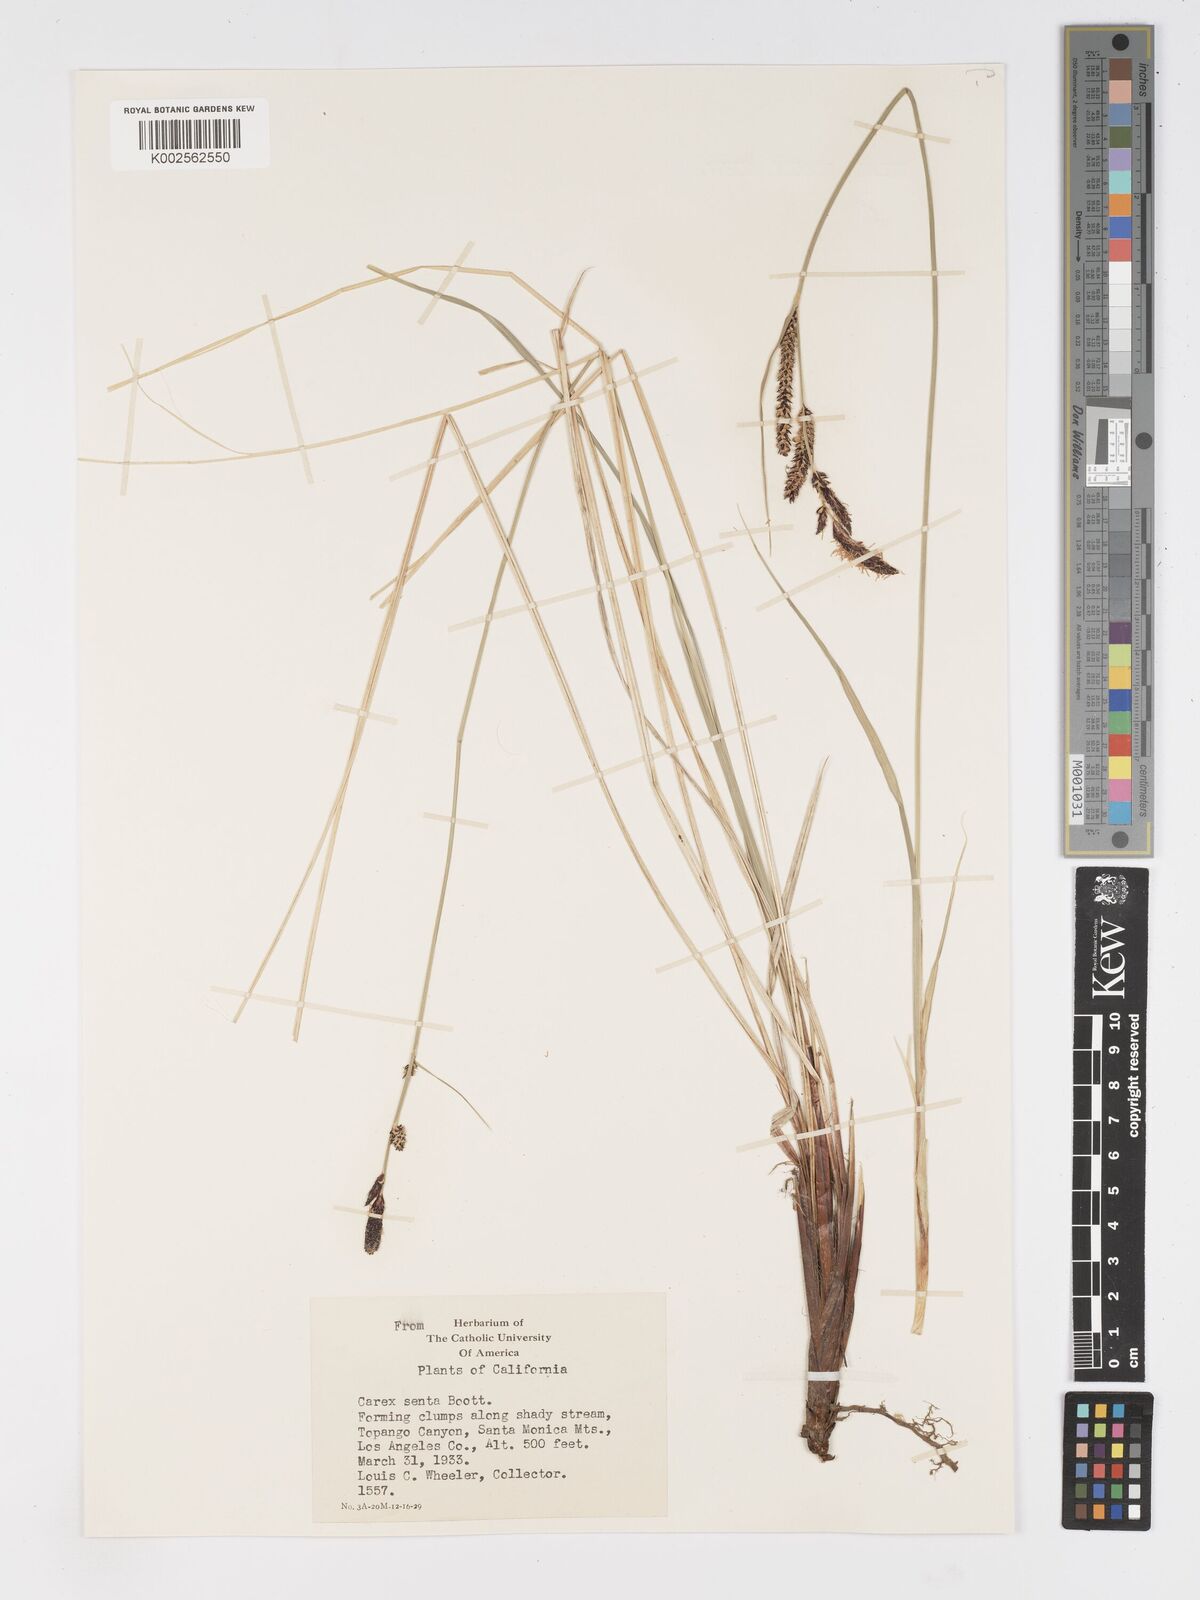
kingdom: Plantae
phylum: Tracheophyta
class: Liliopsida
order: Poales
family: Cyperaceae
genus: Carex
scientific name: Carex senta
